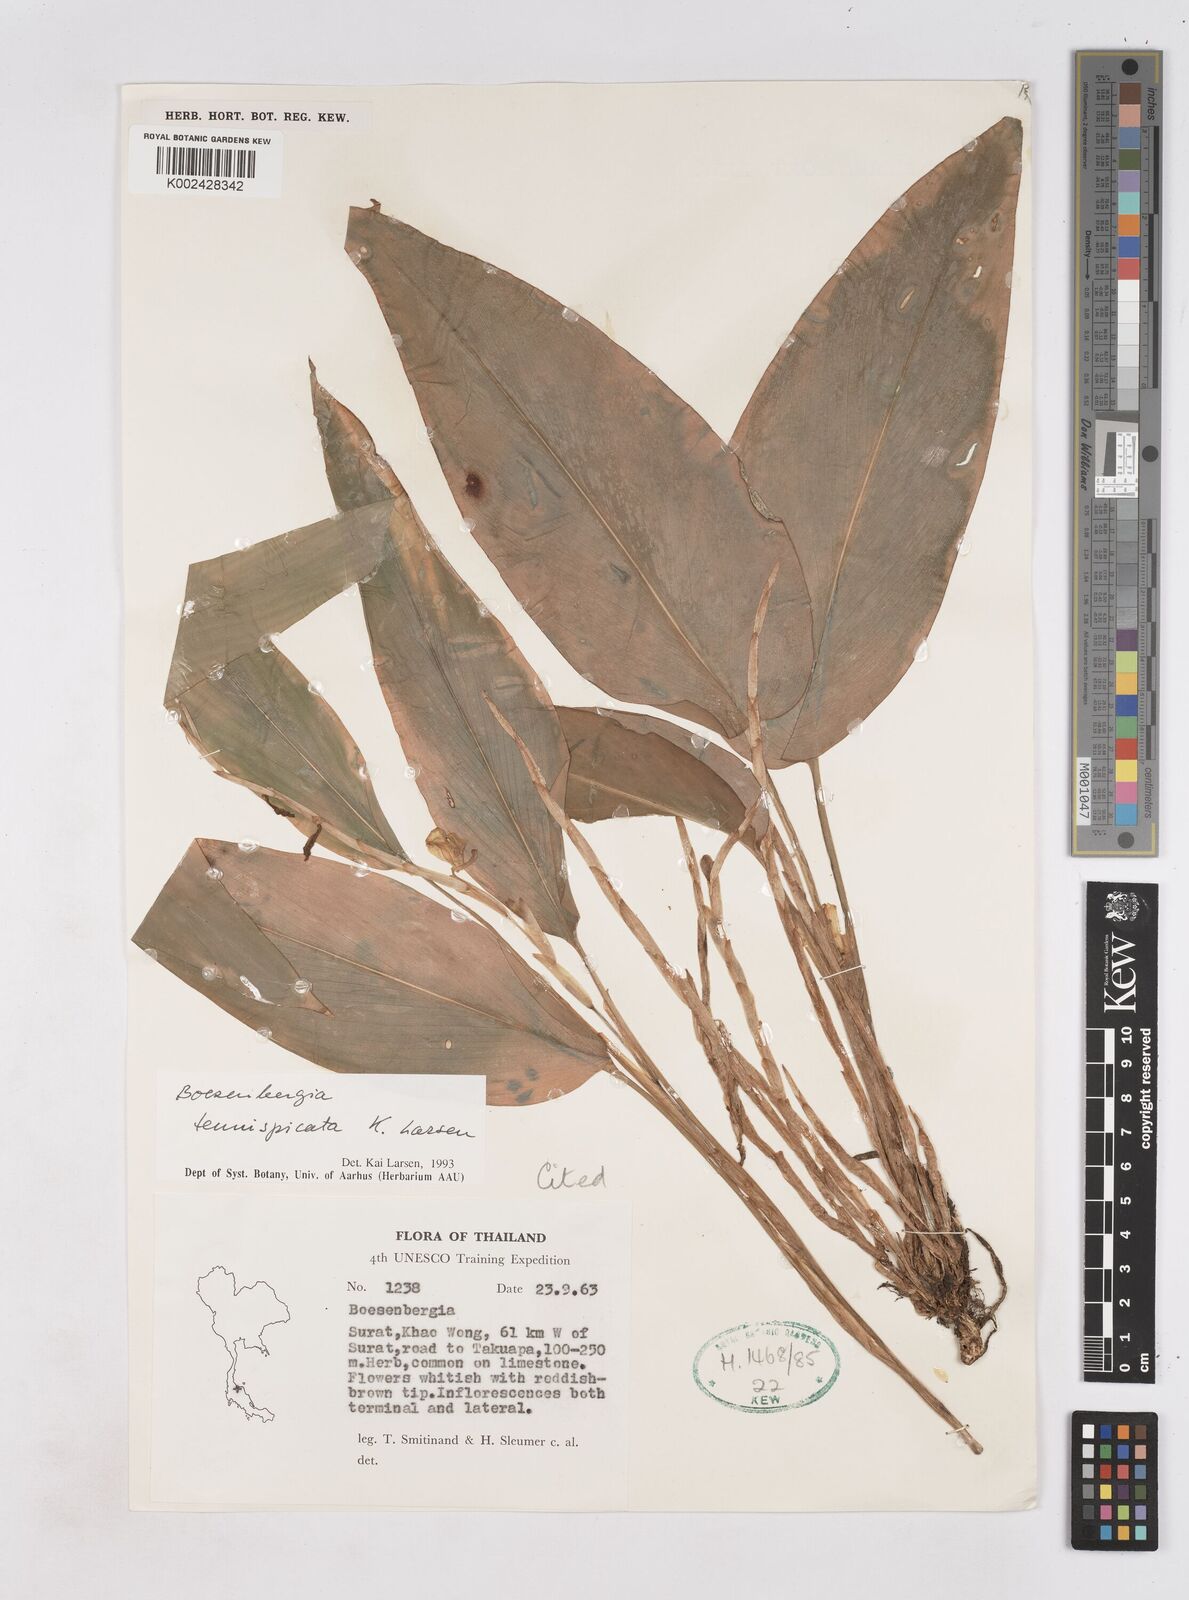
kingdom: Plantae
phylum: Tracheophyta
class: Liliopsida
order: Zingiberales
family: Zingiberaceae
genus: Boesenbergia
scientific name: Boesenbergia tenuispicata
